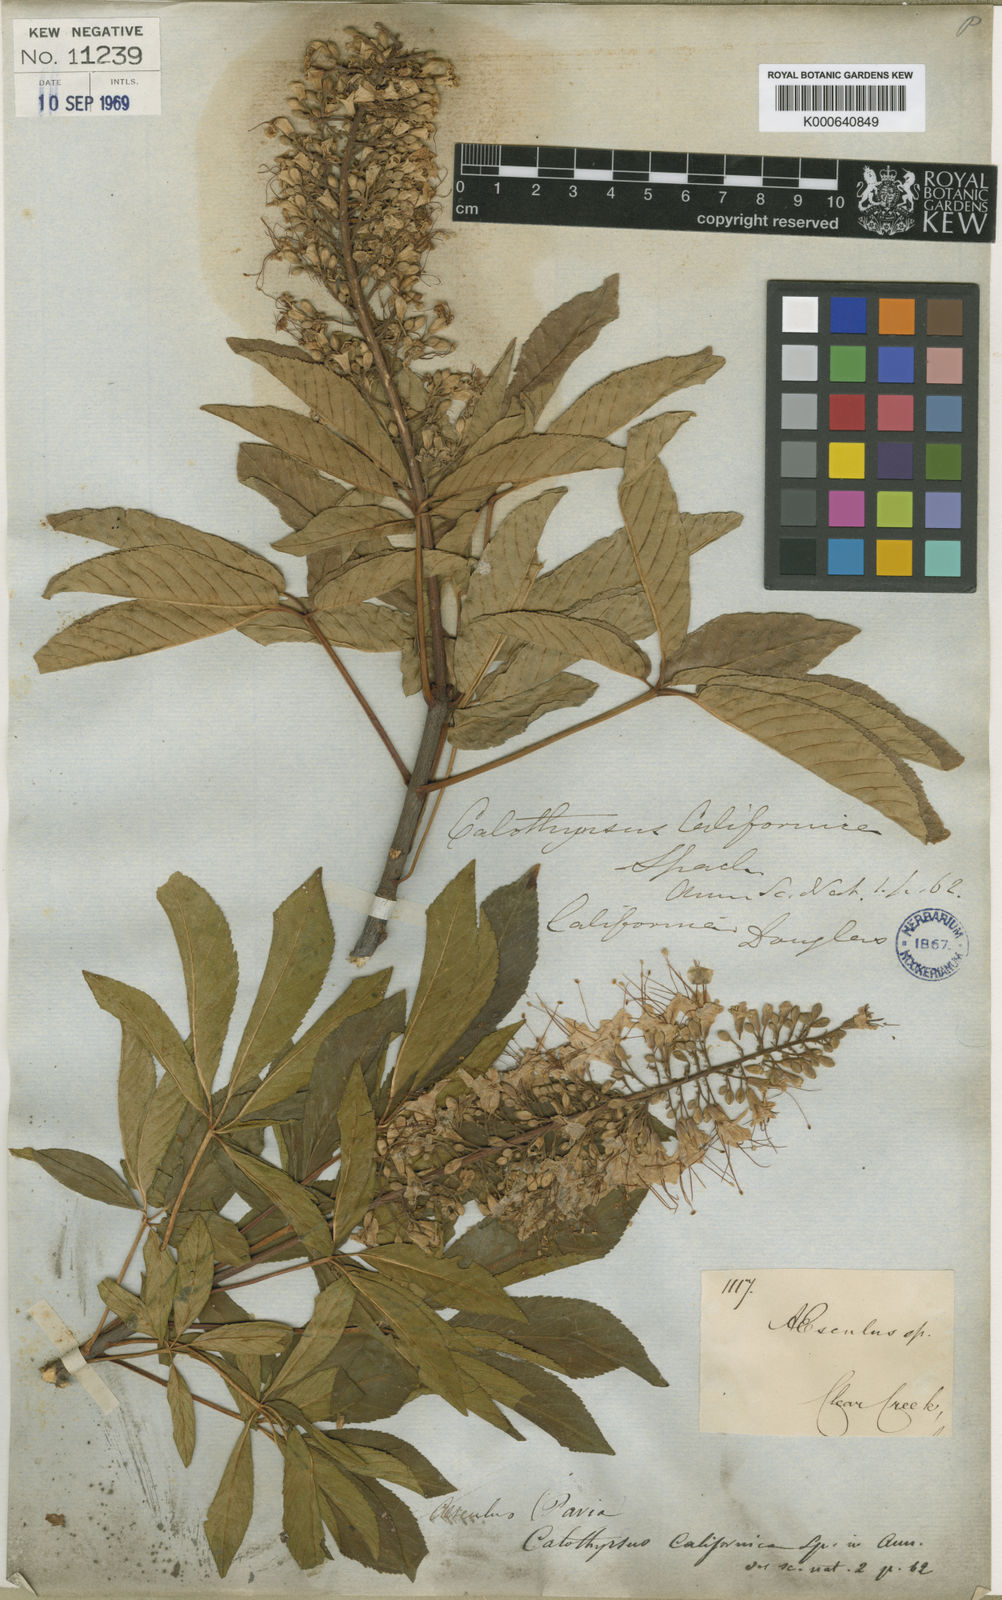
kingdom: Plantae
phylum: Tracheophyta
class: Magnoliopsida
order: Sapindales
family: Sapindaceae
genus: Aesculus
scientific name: Aesculus californica
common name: California buckeye
